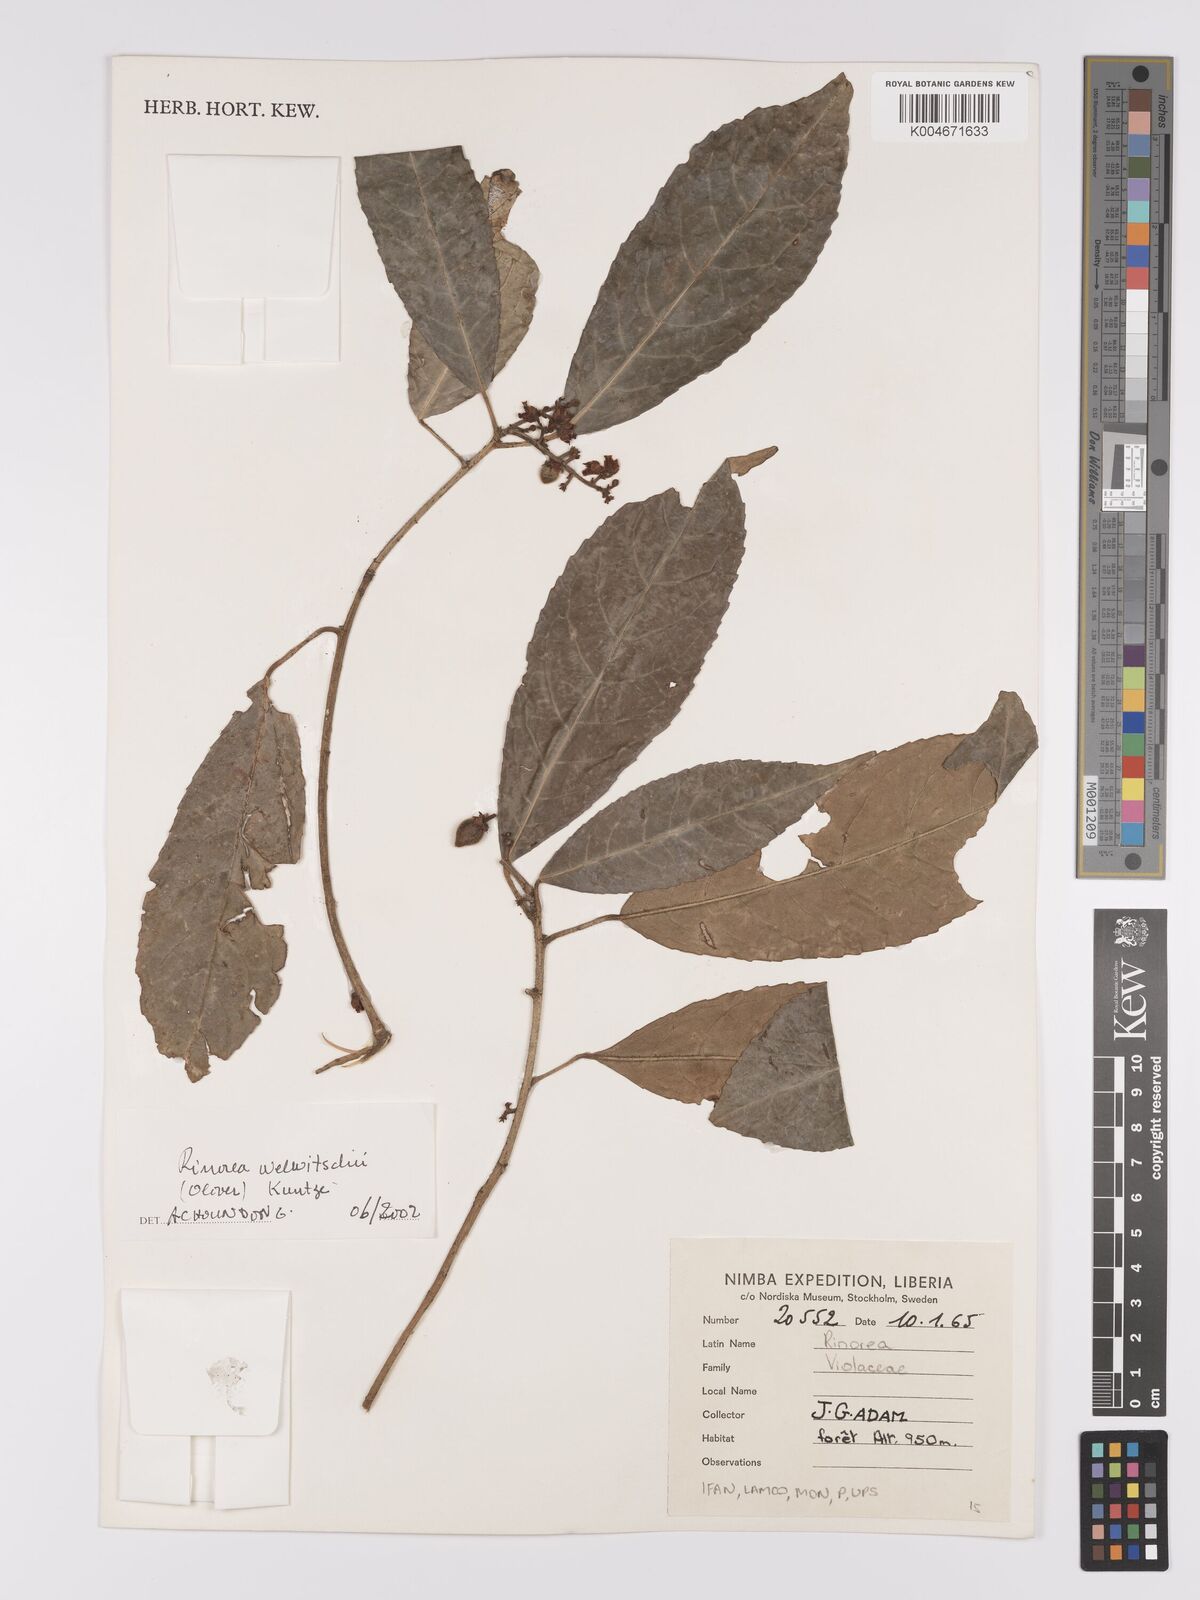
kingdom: Plantae
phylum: Tracheophyta
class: Magnoliopsida
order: Malpighiales
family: Violaceae
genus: Rinorea
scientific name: Rinorea welwitschii
